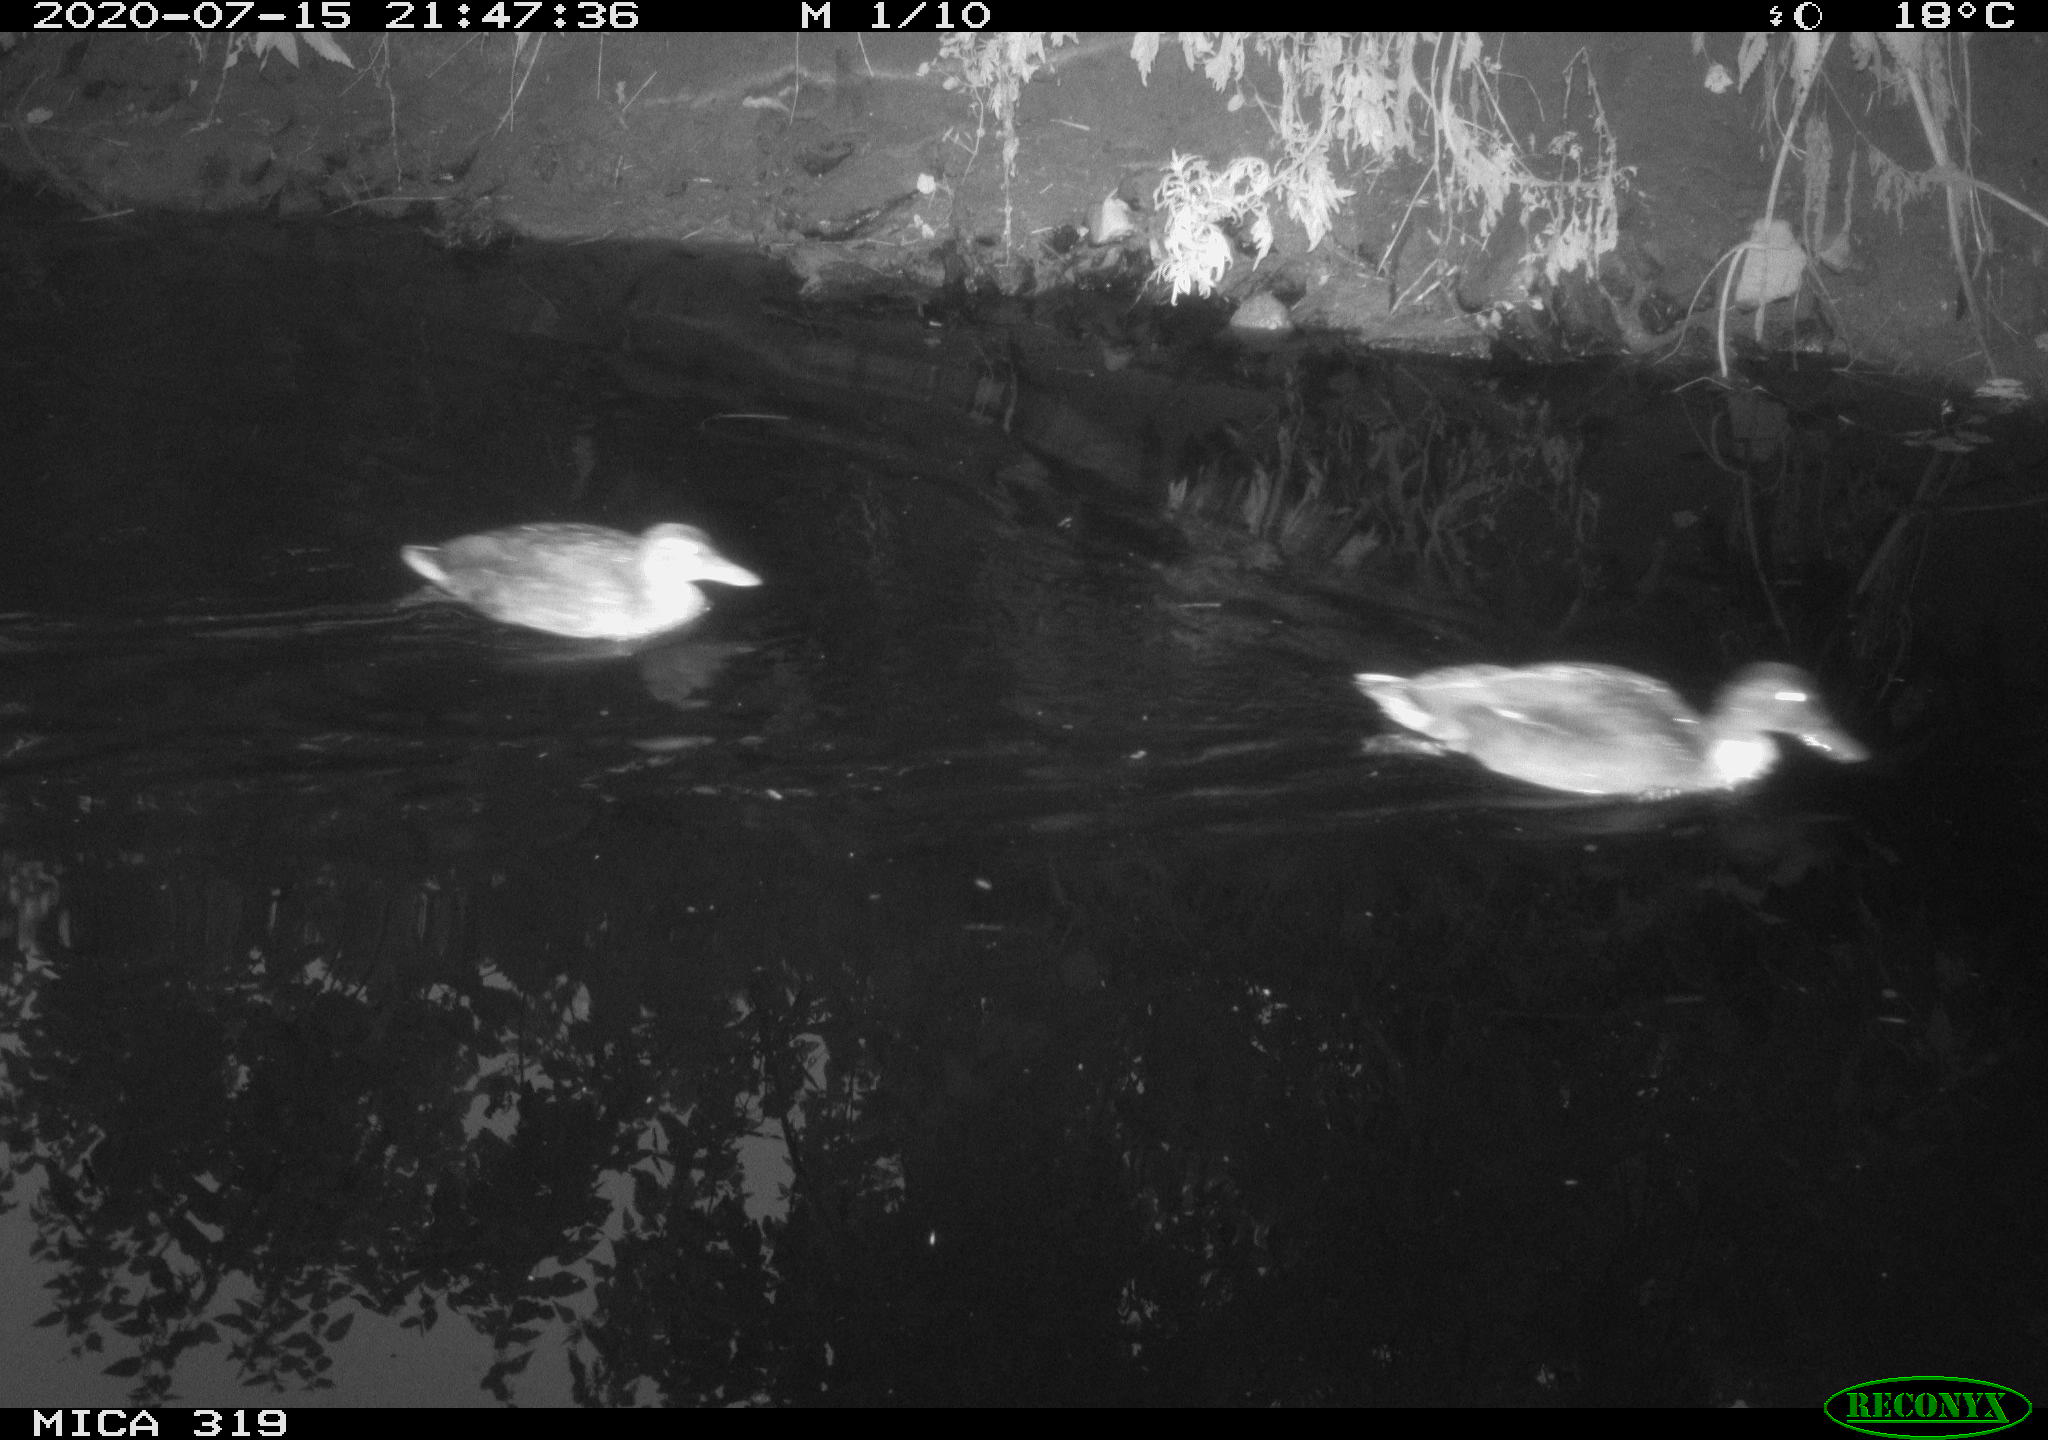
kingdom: Animalia
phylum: Chordata
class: Aves
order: Anseriformes
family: Anatidae
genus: Anas
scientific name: Anas platyrhynchos
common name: Mallard
